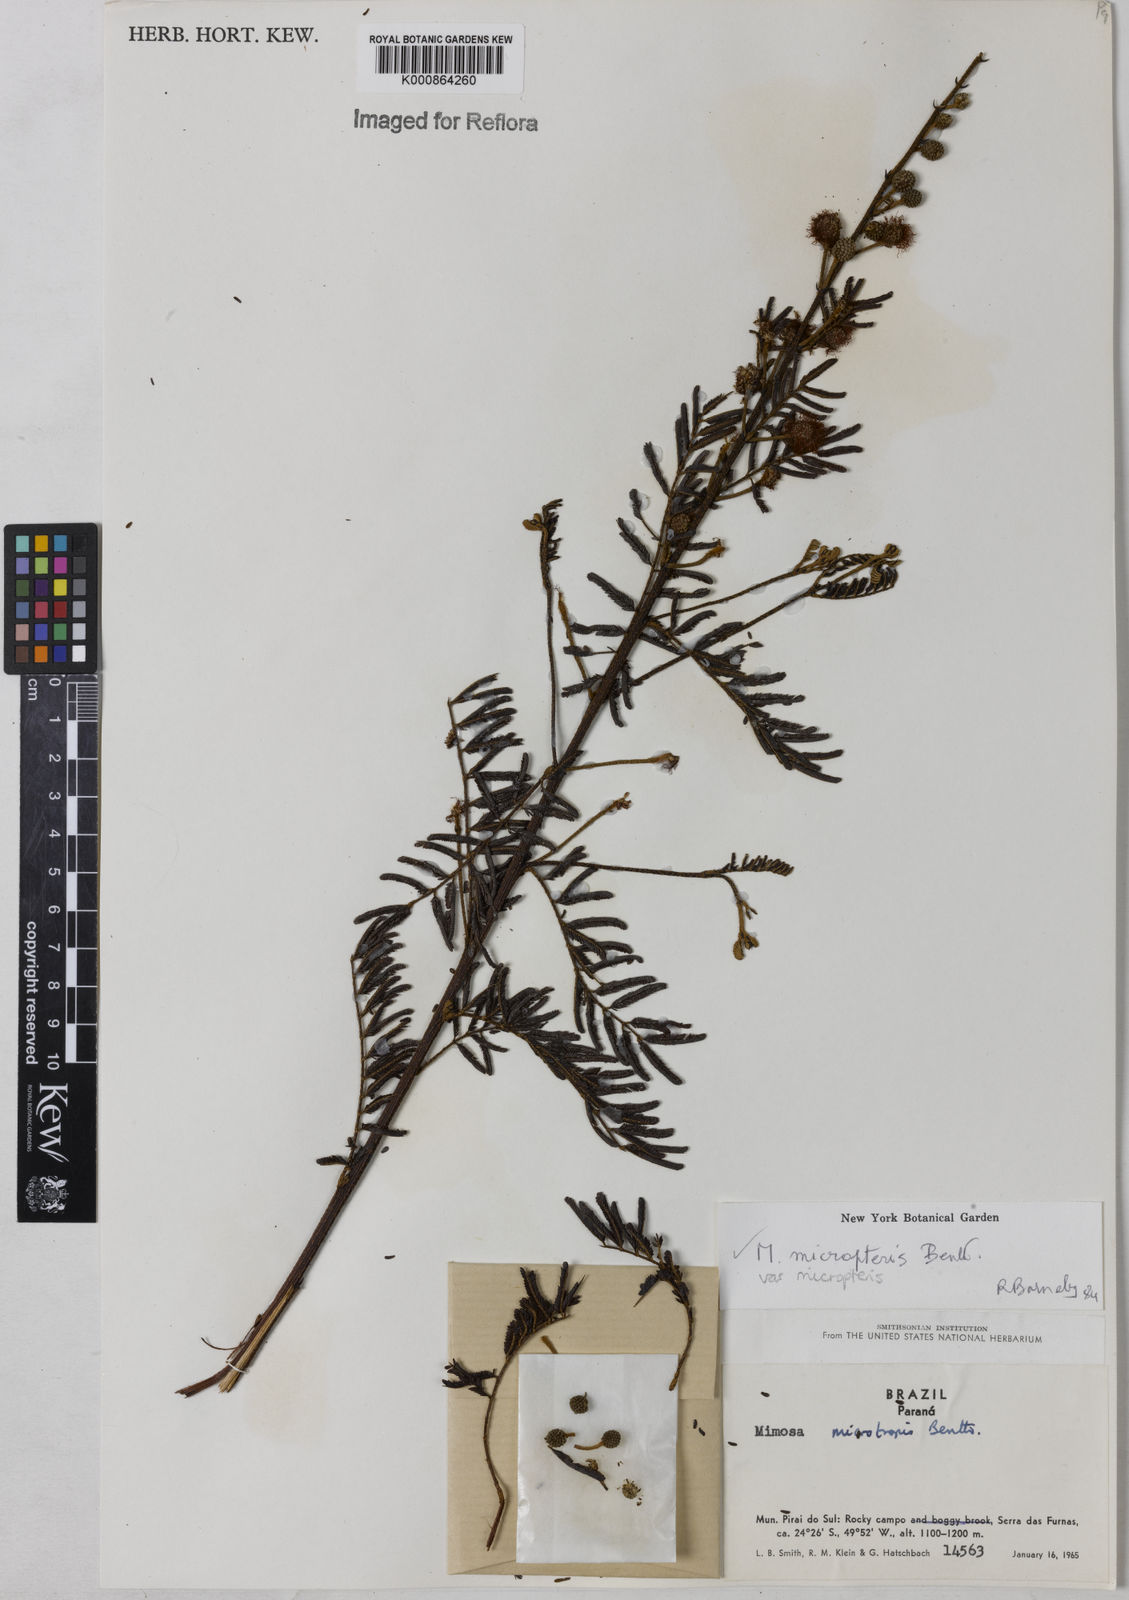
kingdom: Plantae
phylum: Tracheophyta
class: Magnoliopsida
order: Fabales
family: Fabaceae
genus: Mimosa
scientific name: Mimosa micropteris
